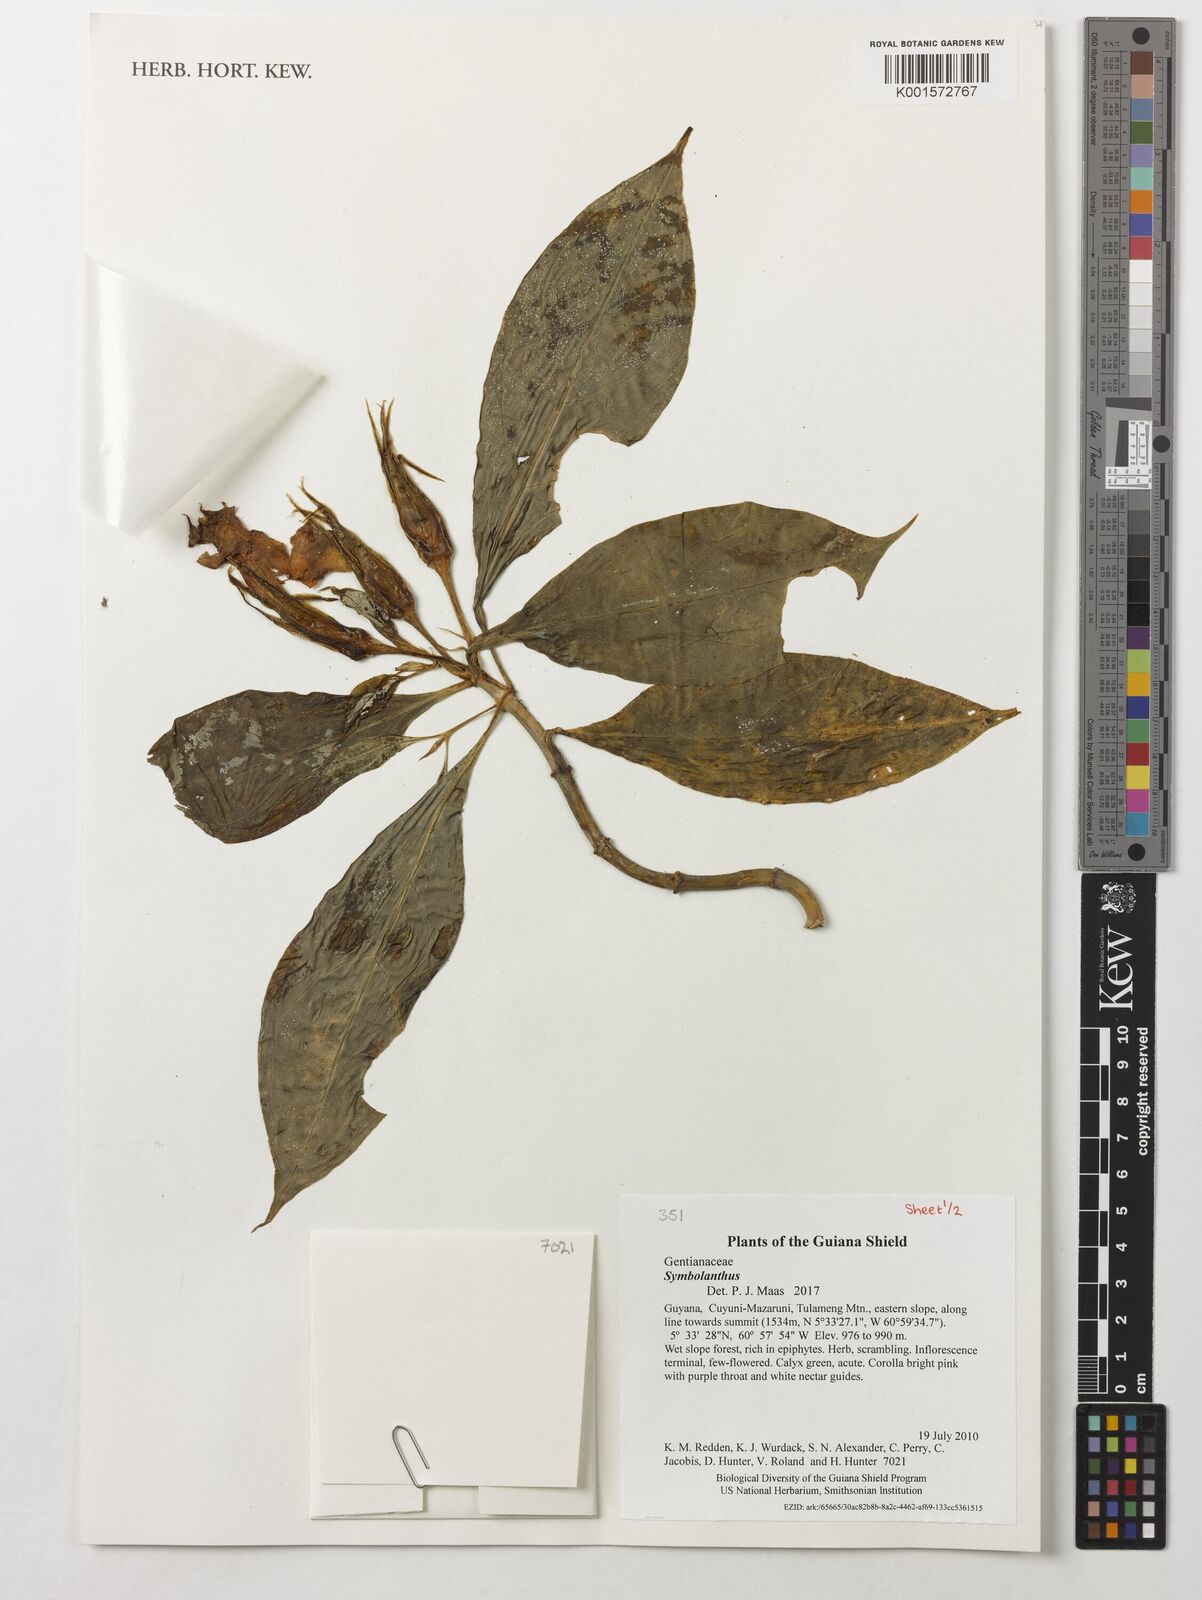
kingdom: Plantae
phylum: Tracheophyta
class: Magnoliopsida
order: Gentianales
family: Gentianaceae
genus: Symbolanthus
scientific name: Symbolanthus
